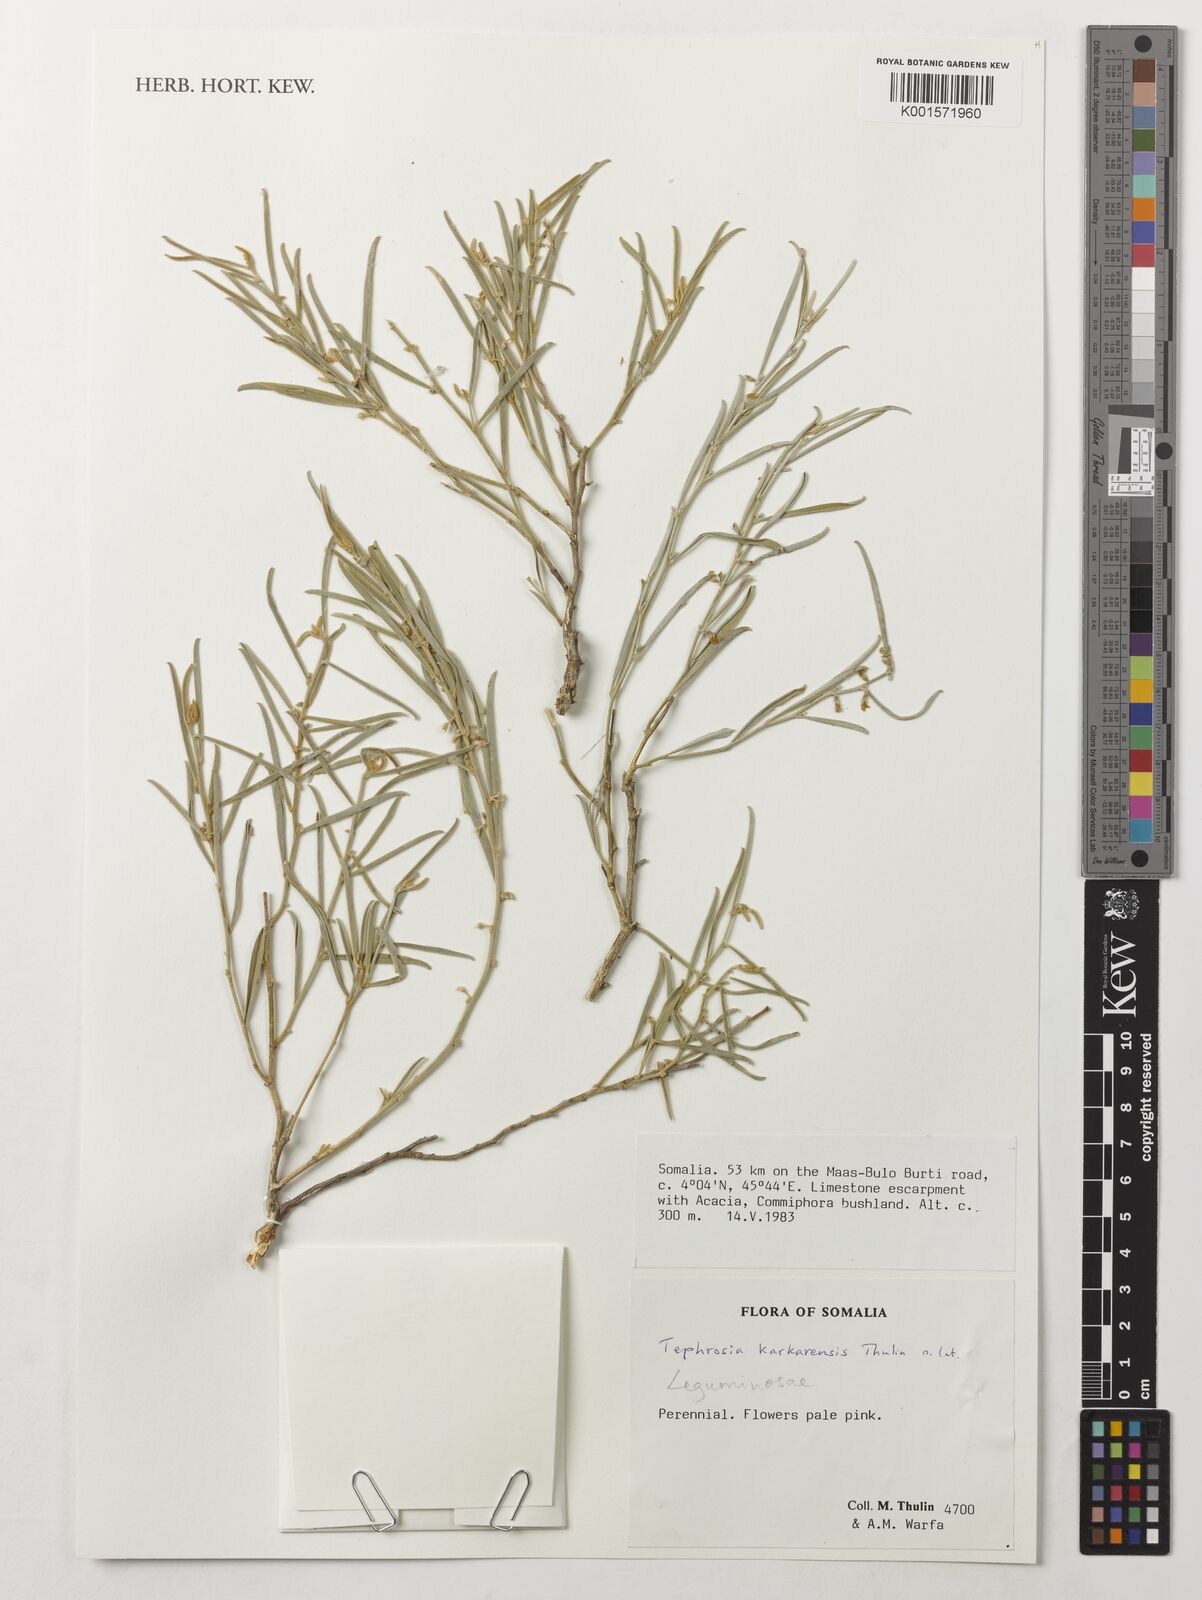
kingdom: Plantae
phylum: Tracheophyta
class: Magnoliopsida
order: Fabales
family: Fabaceae
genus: Tephrosia
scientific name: Tephrosia karkarensis
